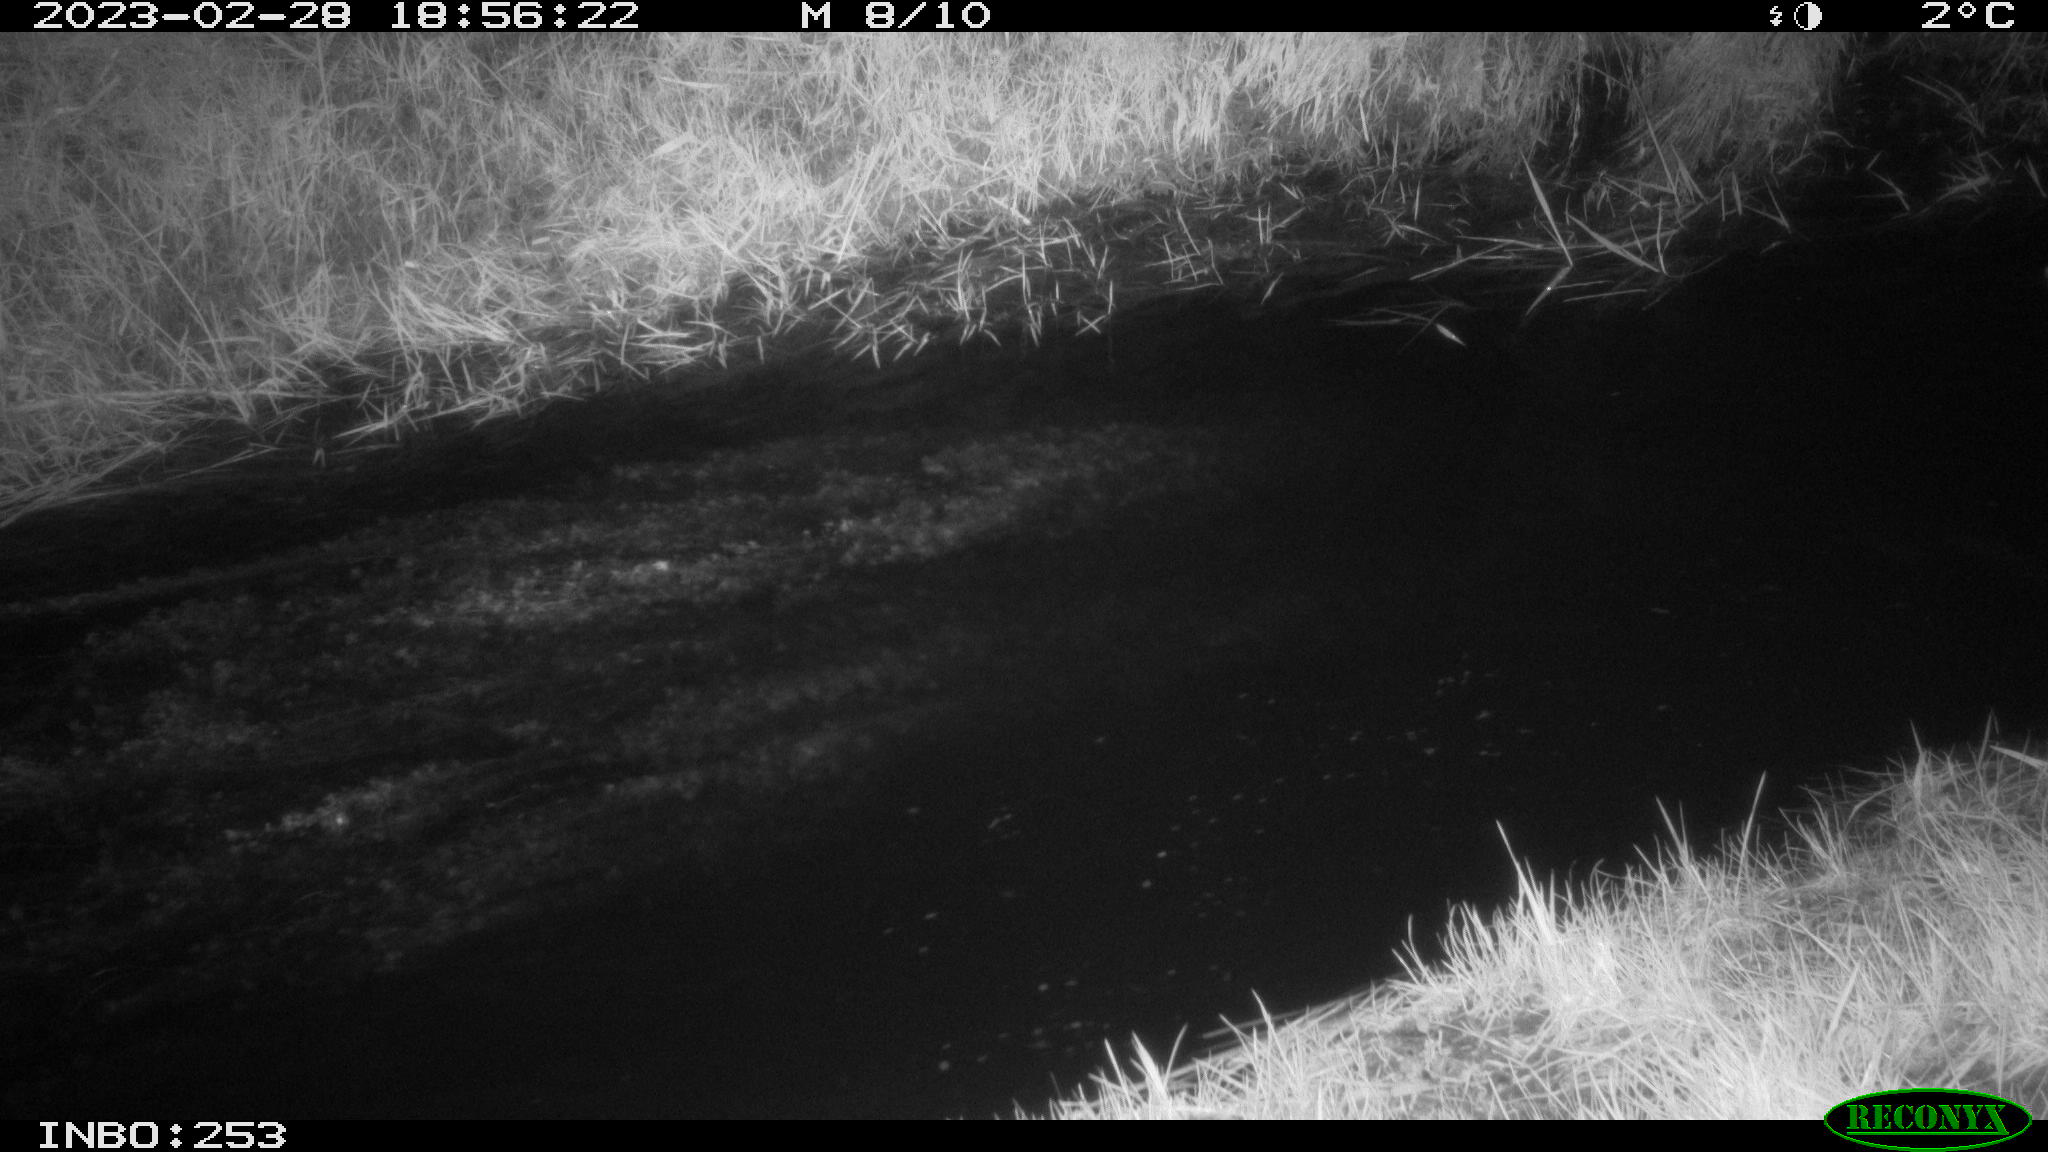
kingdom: Animalia
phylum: Chordata
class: Aves
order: Anseriformes
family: Anatidae
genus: Anas
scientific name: Anas
